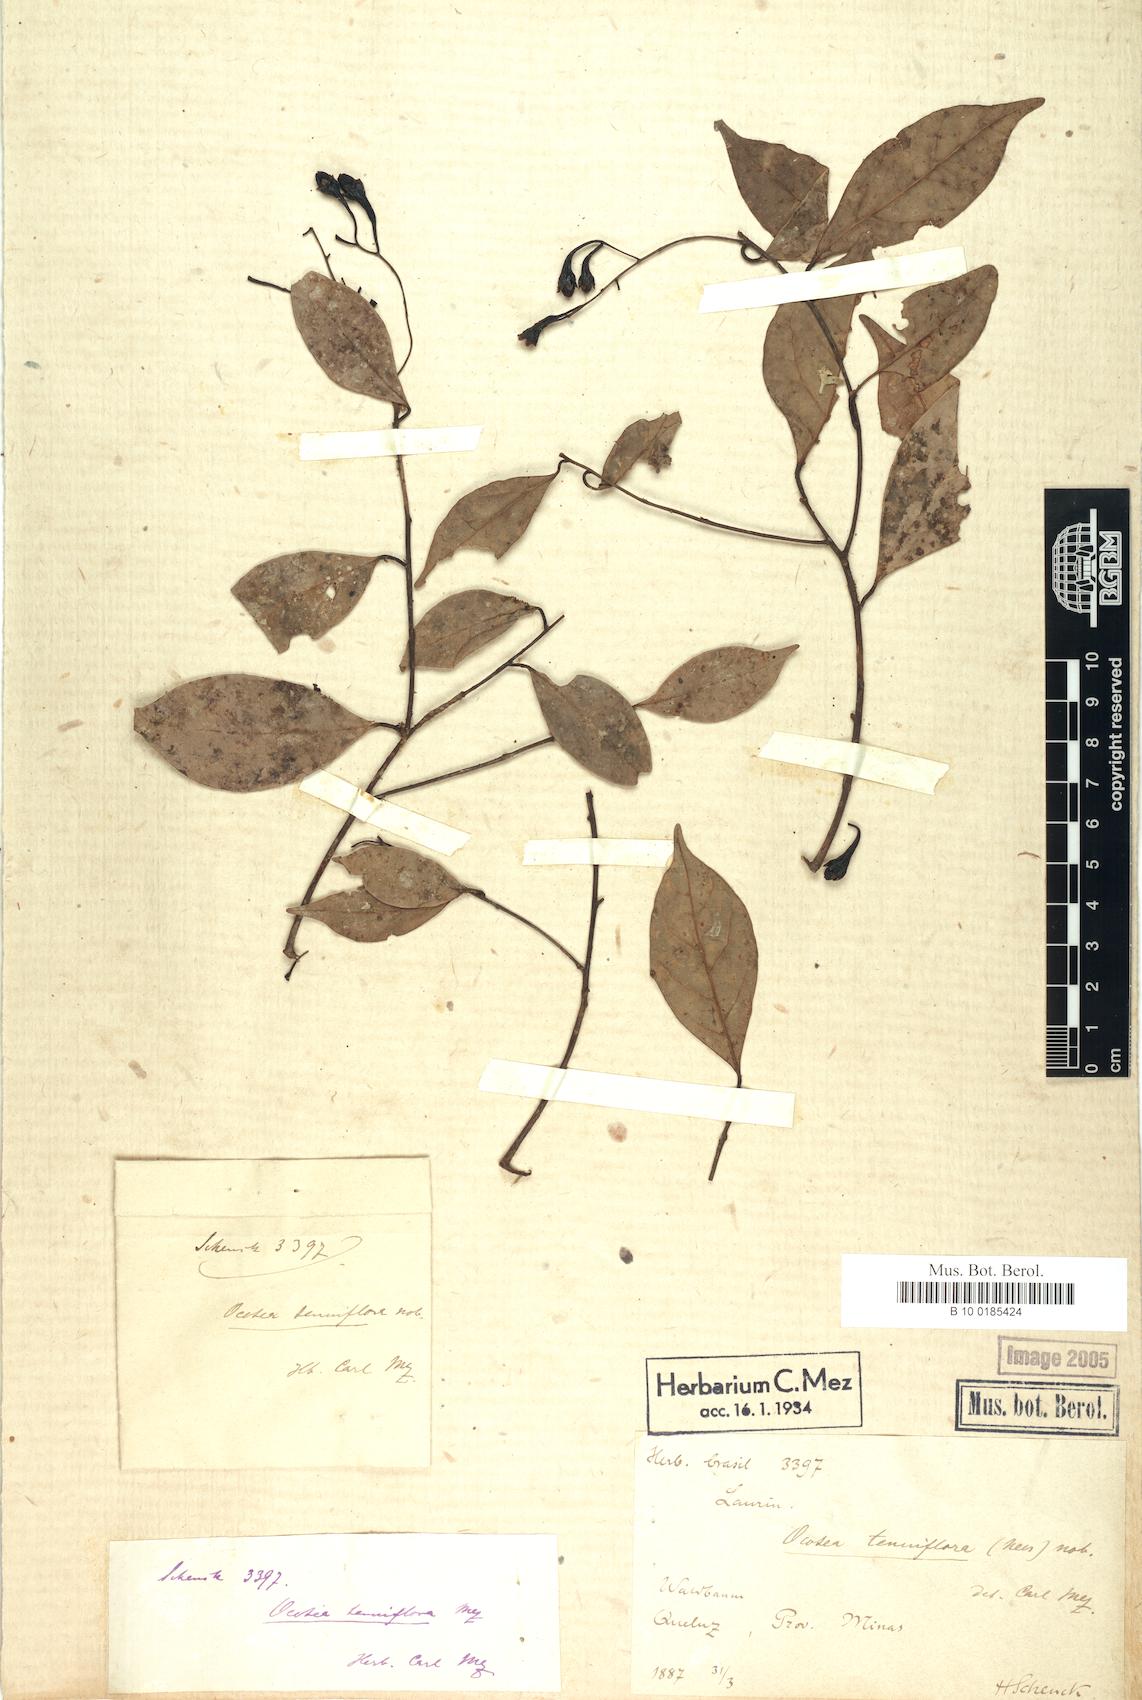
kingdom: Plantae
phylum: Tracheophyta
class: Magnoliopsida
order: Laurales
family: Lauraceae
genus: Ocotea
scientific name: Ocotea tenuiflora
